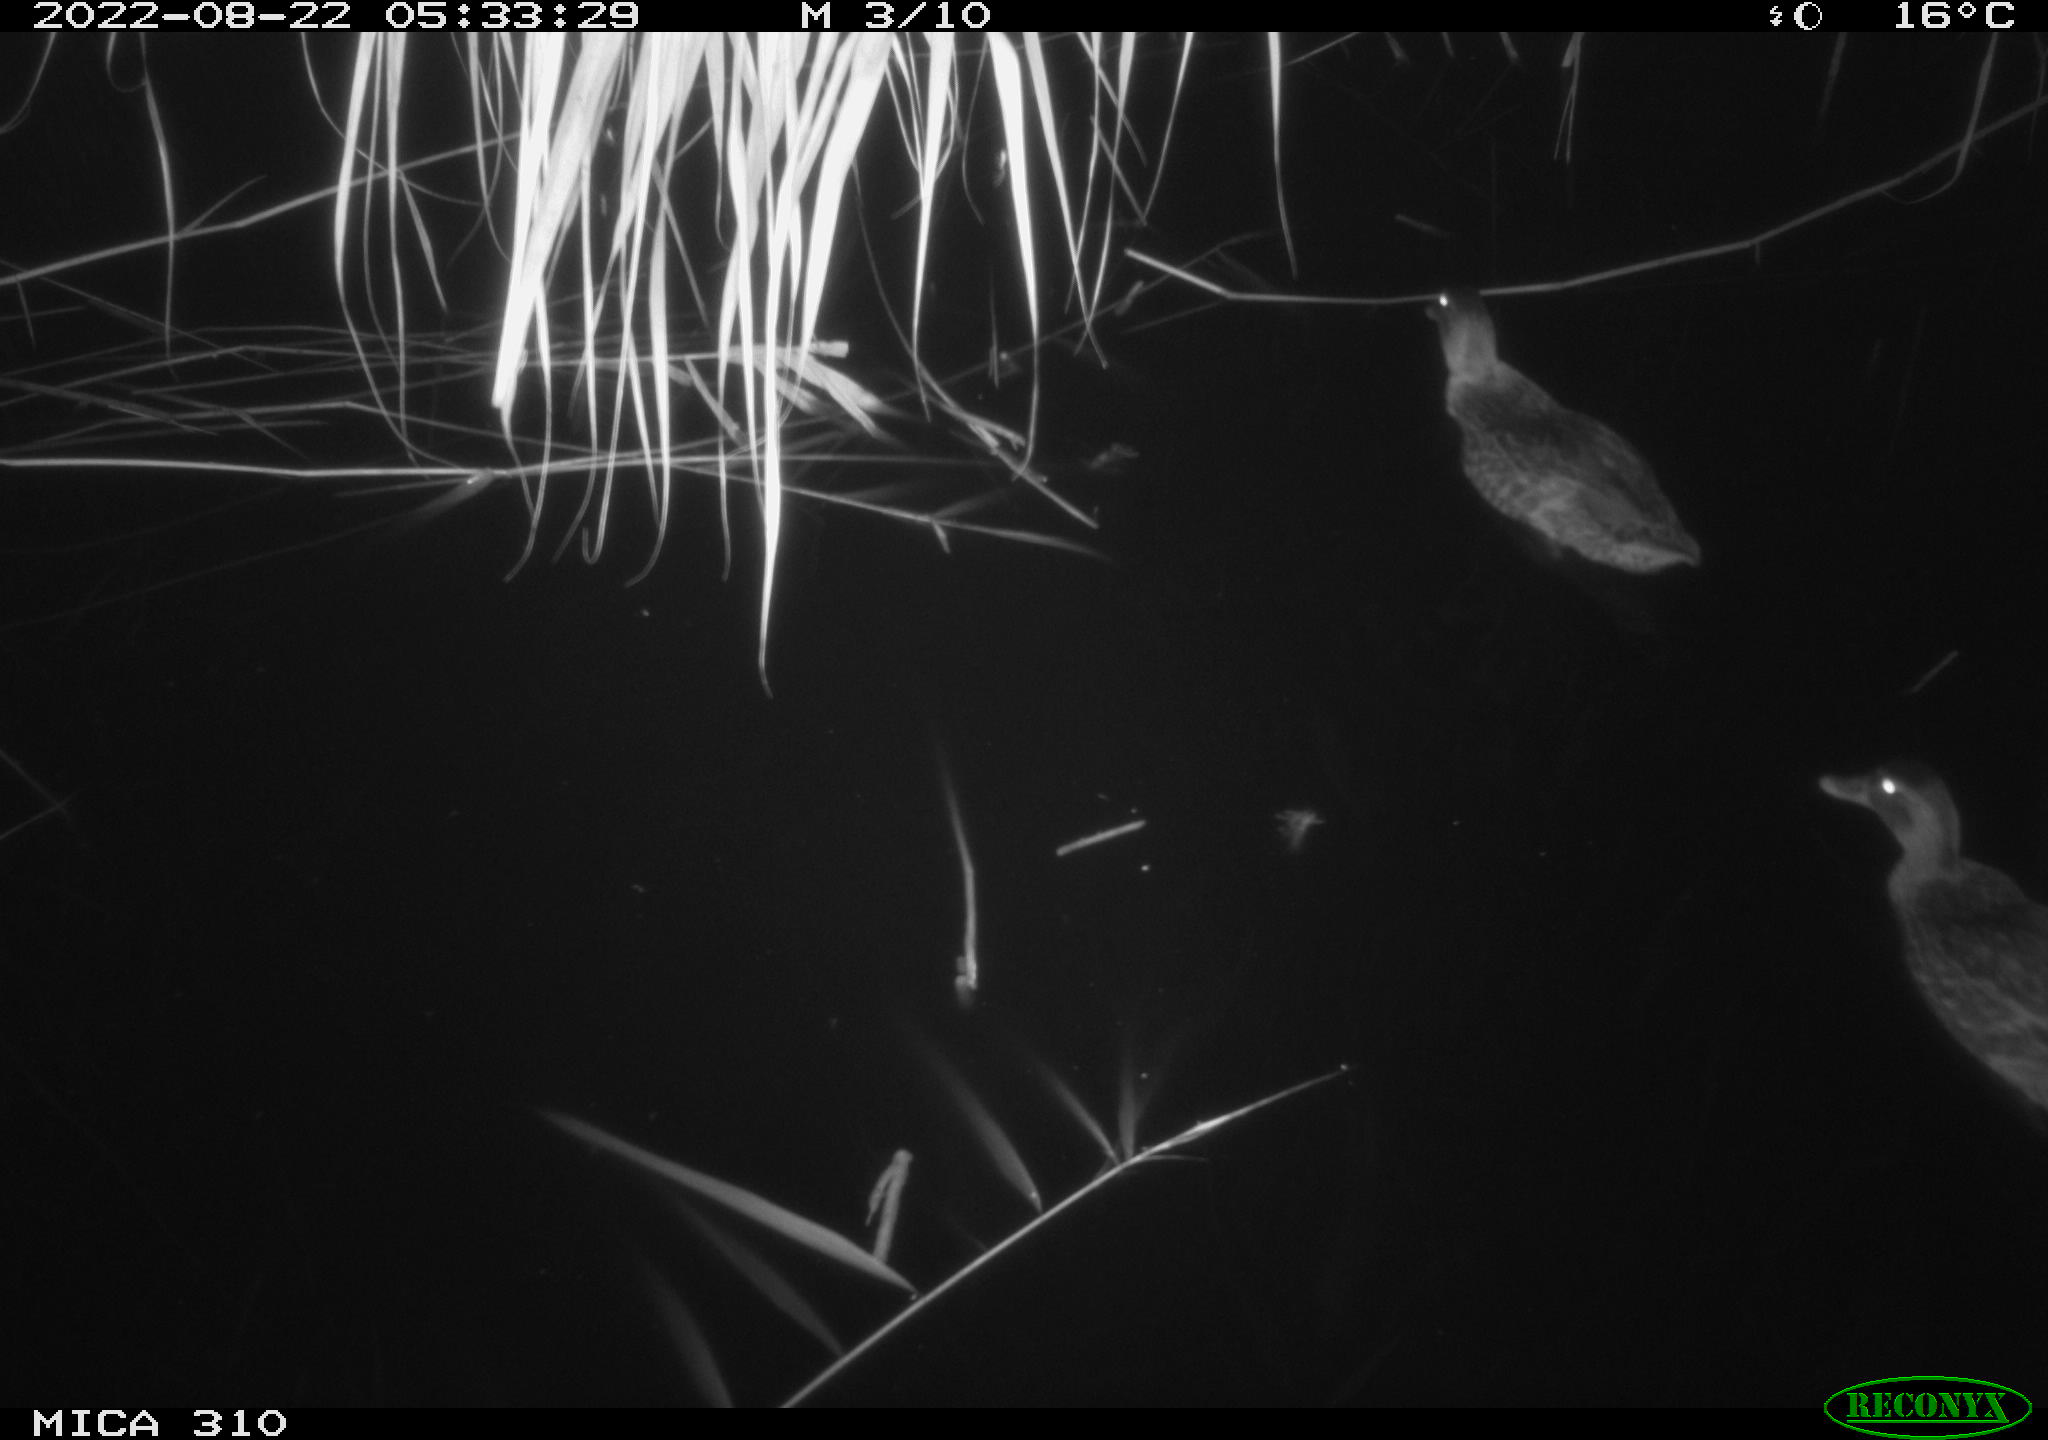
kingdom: Animalia
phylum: Chordata
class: Aves
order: Anseriformes
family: Anatidae
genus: Anas
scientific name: Anas platyrhynchos
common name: Mallard
